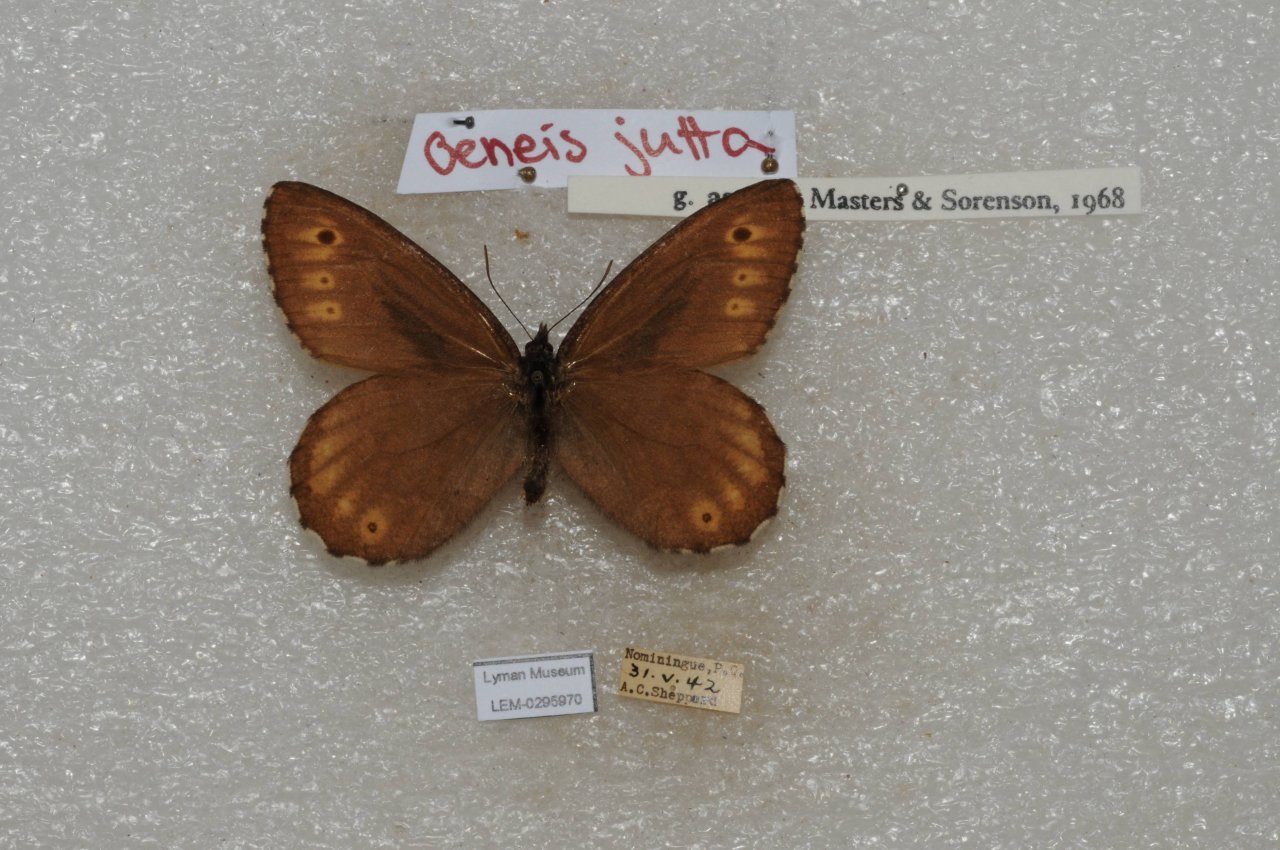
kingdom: Animalia
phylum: Arthropoda
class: Insecta
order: Lepidoptera
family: Nymphalidae
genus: Oeneis
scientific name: Oeneis jutta
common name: Jutta Arctic
